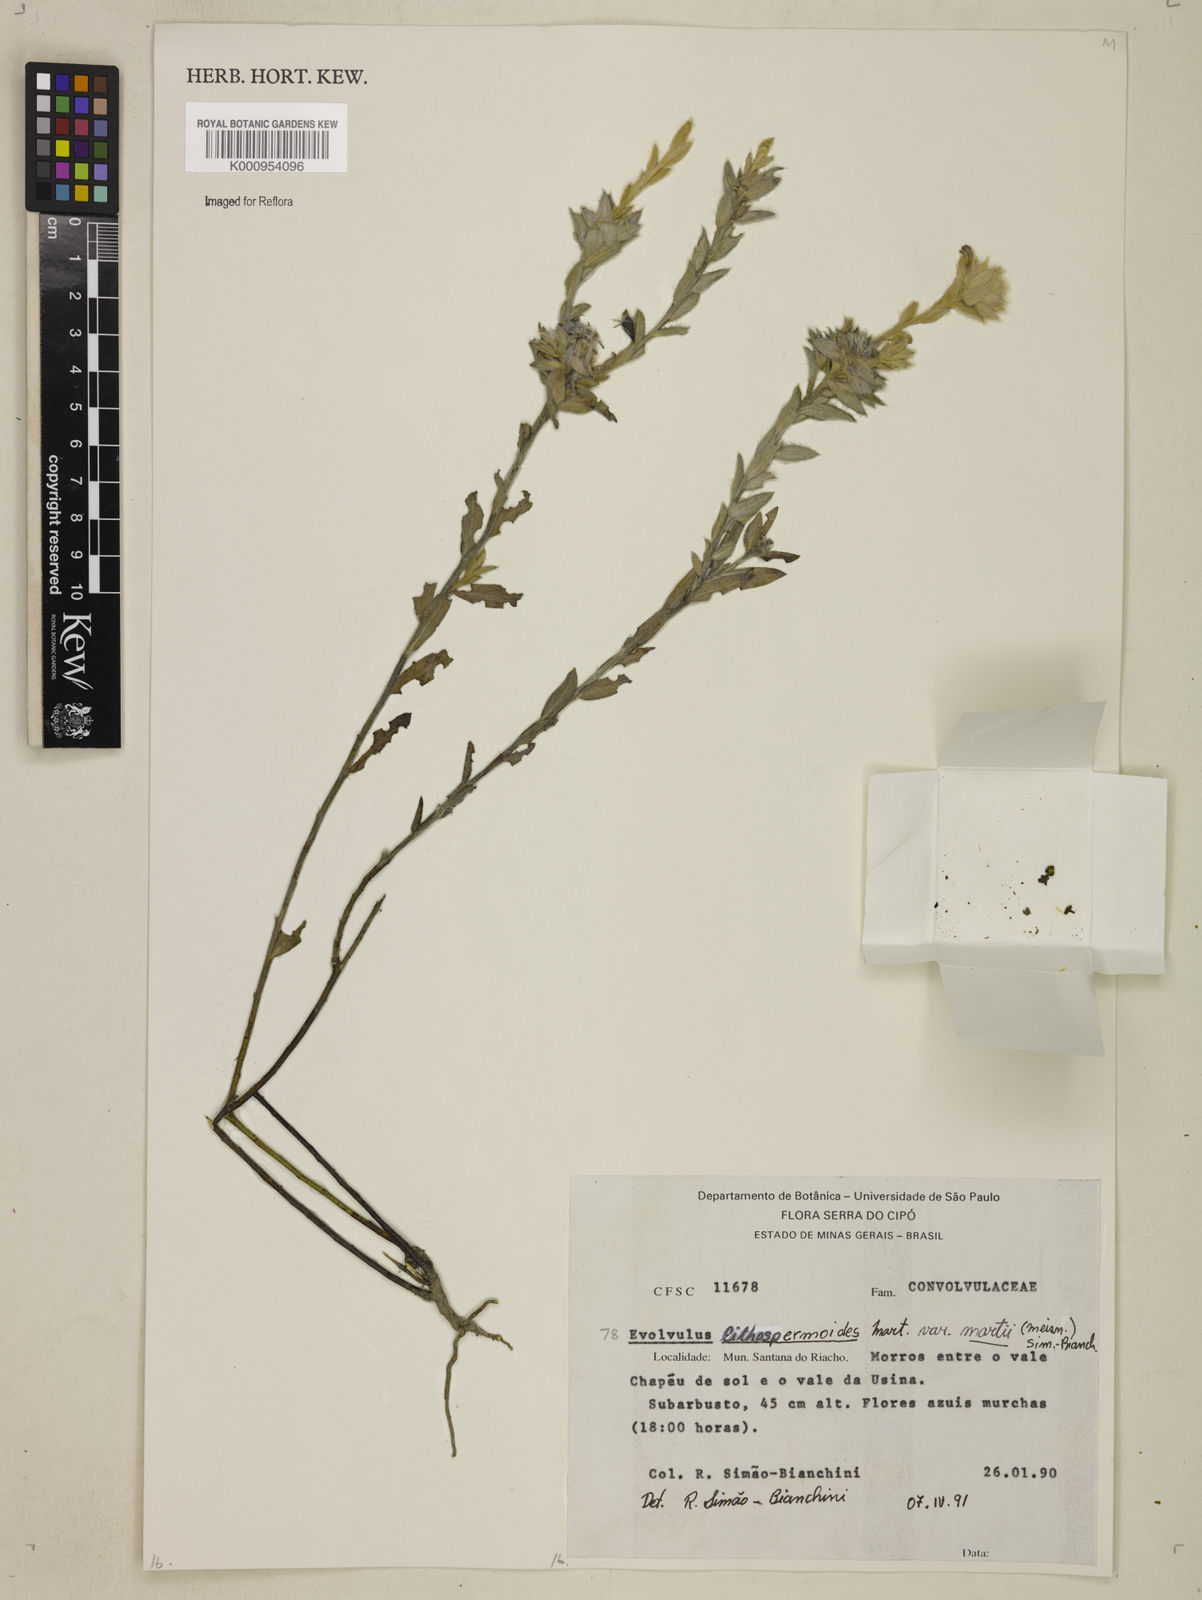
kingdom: Plantae
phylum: Tracheophyta
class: Magnoliopsida
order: Solanales
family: Convolvulaceae
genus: Evolvulus
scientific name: Evolvulus lithospermoides
